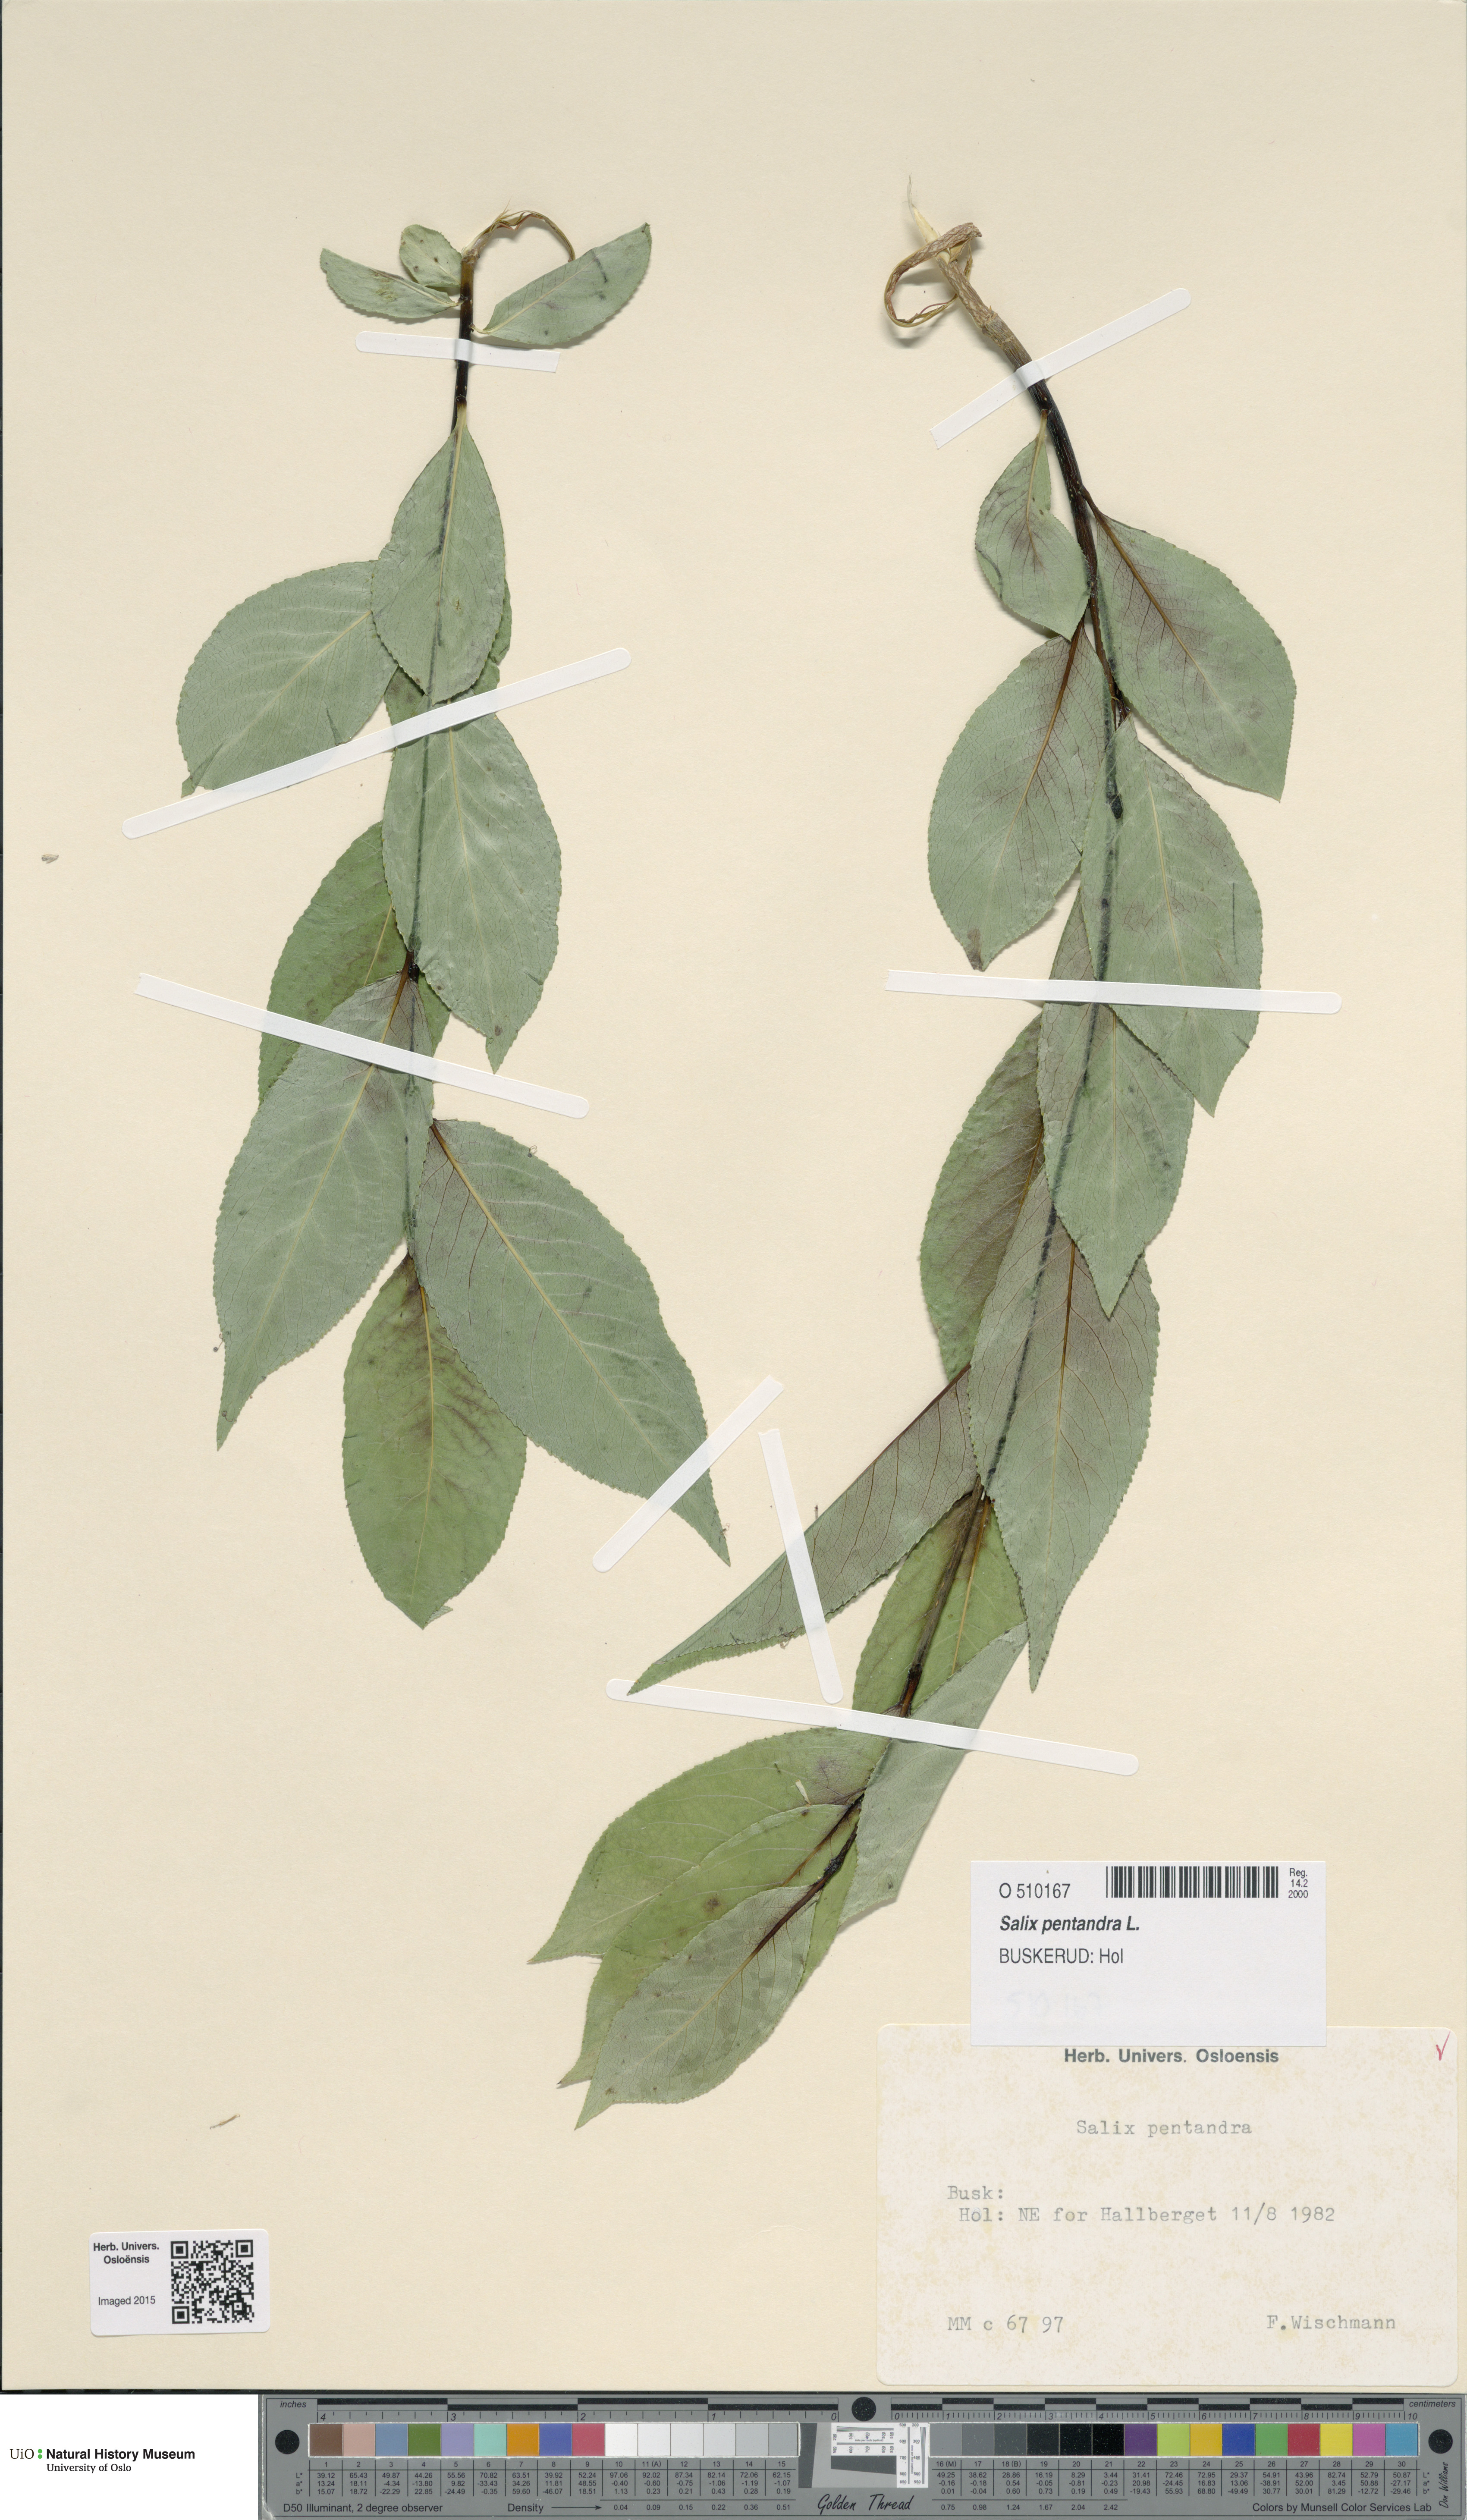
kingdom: Plantae
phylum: Tracheophyta
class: Magnoliopsida
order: Malpighiales
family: Salicaceae
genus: Salix
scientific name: Salix pentandra
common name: Bay willow
